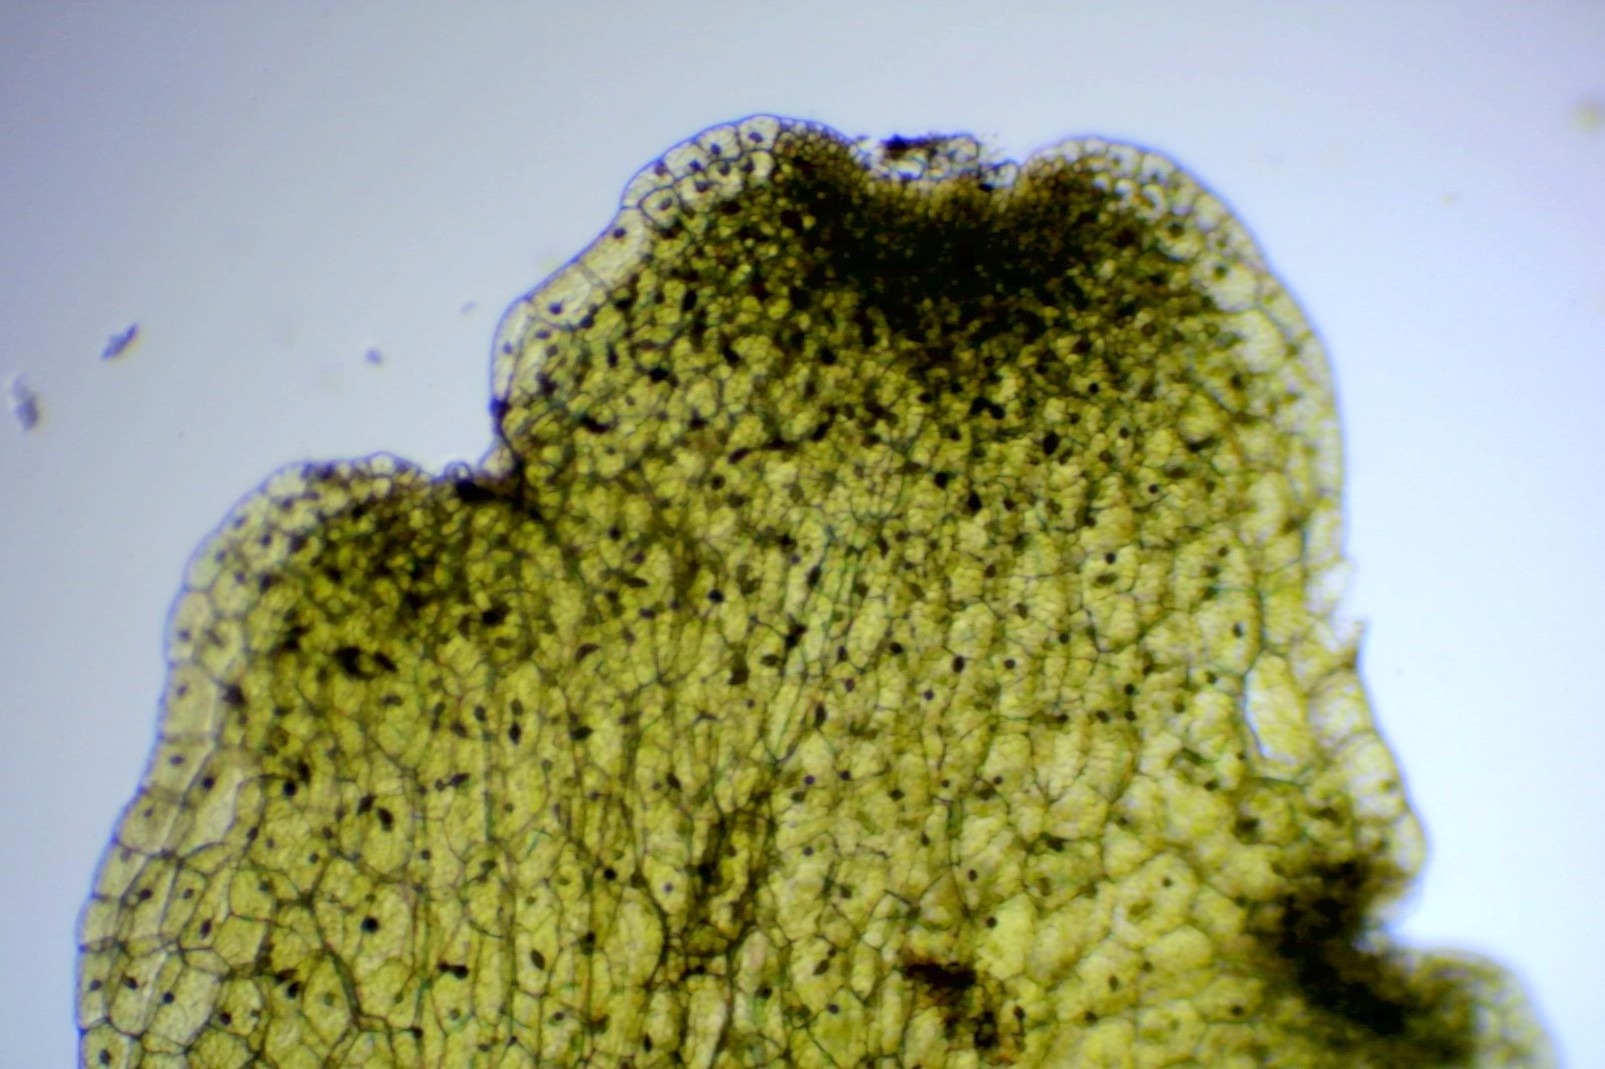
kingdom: Plantae
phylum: Marchantiophyta
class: Jungermanniopsida
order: Metzgeriales
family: Aneuraceae
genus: Riccardia
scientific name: Riccardia chamedryfolia
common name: Smalfliget ribbeløs
